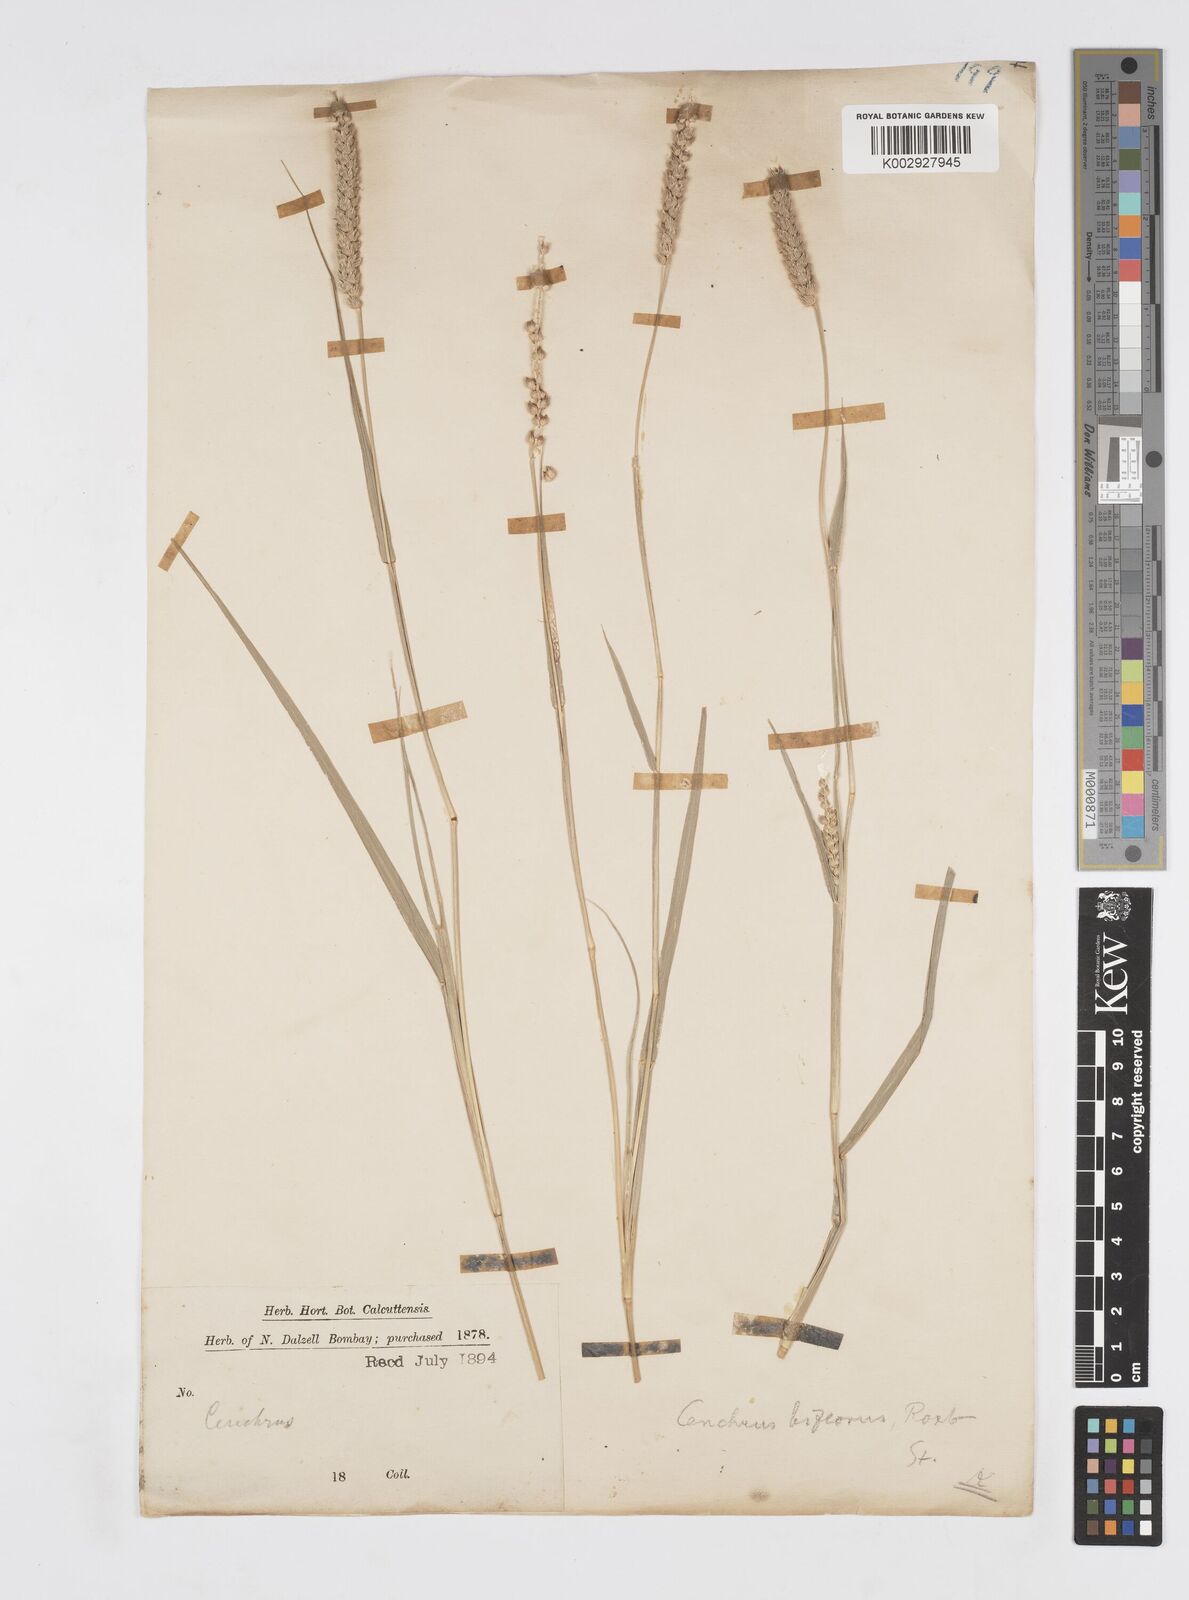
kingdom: Plantae
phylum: Tracheophyta
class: Liliopsida
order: Poales
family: Poaceae
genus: Cenchrus
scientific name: Cenchrus setigerus
